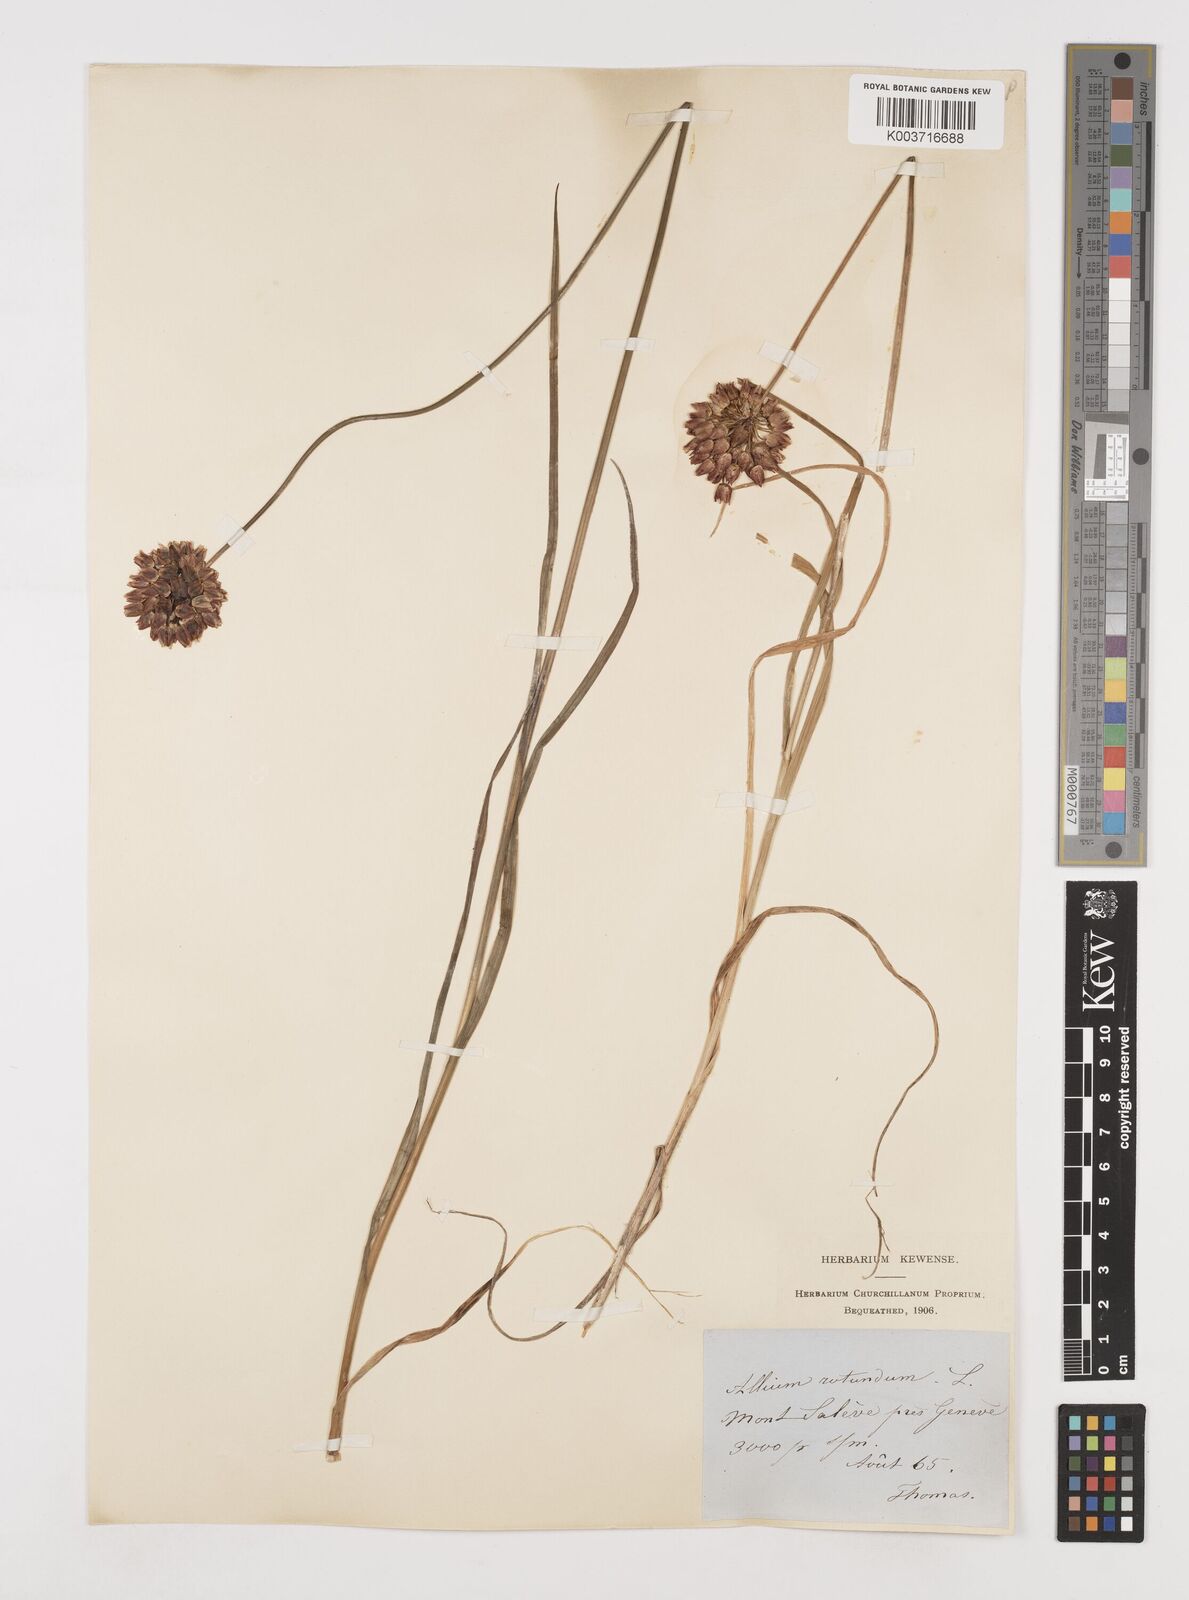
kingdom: Plantae
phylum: Tracheophyta
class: Liliopsida
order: Asparagales
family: Amaryllidaceae
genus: Allium
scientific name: Allium rotundum
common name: Sand leek
